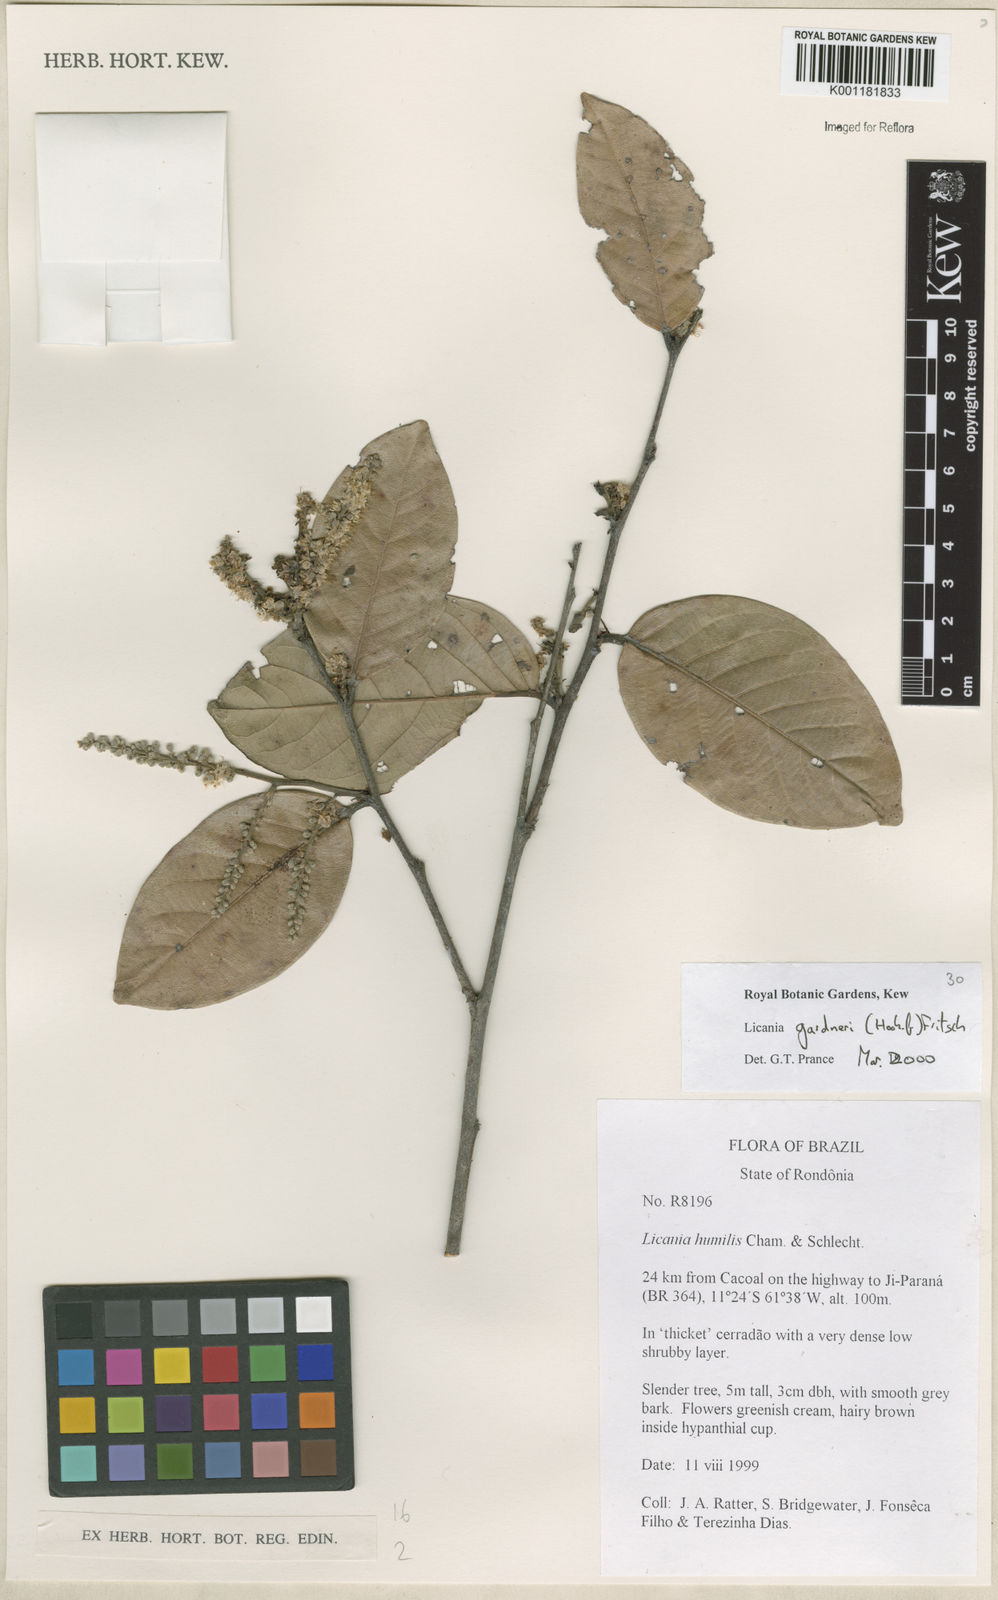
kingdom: Plantae
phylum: Tracheophyta
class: Magnoliopsida
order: Malpighiales
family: Chrysobalanaceae
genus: Leptobalanus
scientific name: Leptobalanus gardneri
